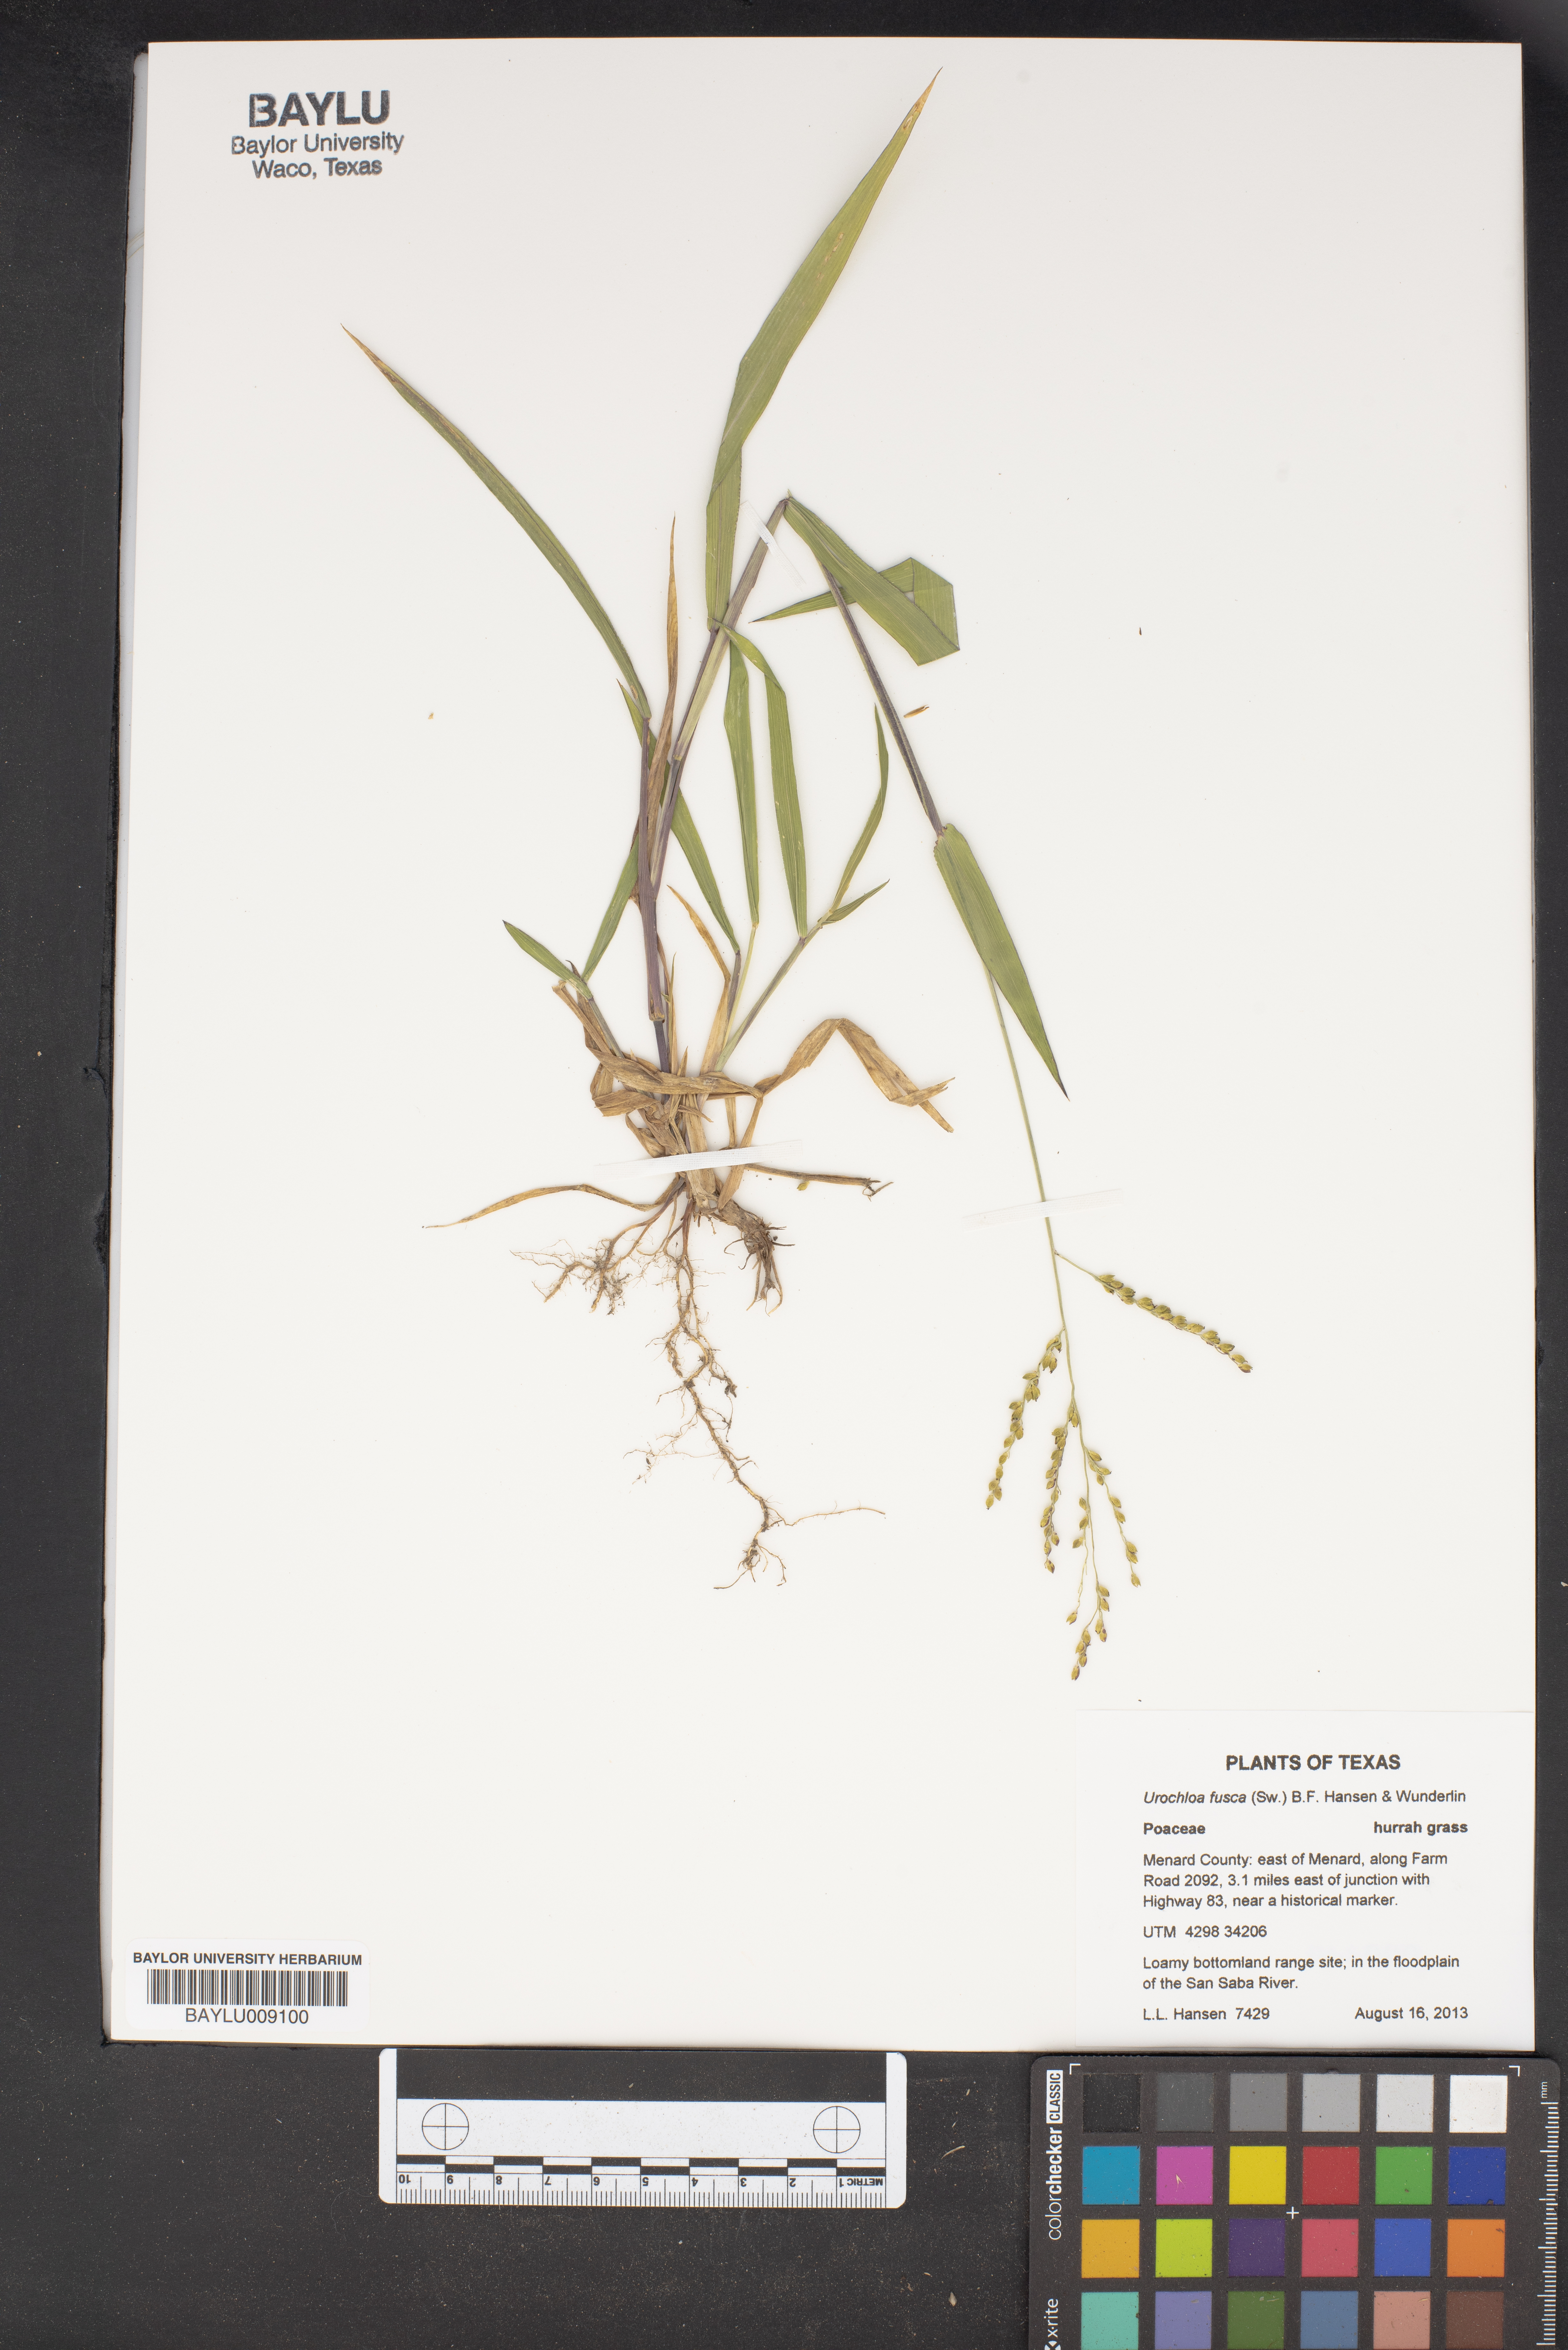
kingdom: Plantae
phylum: Tracheophyta
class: Liliopsida
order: Poales
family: Poaceae
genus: Urochloa
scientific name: Urochloa fusca
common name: Browntop signal grass
